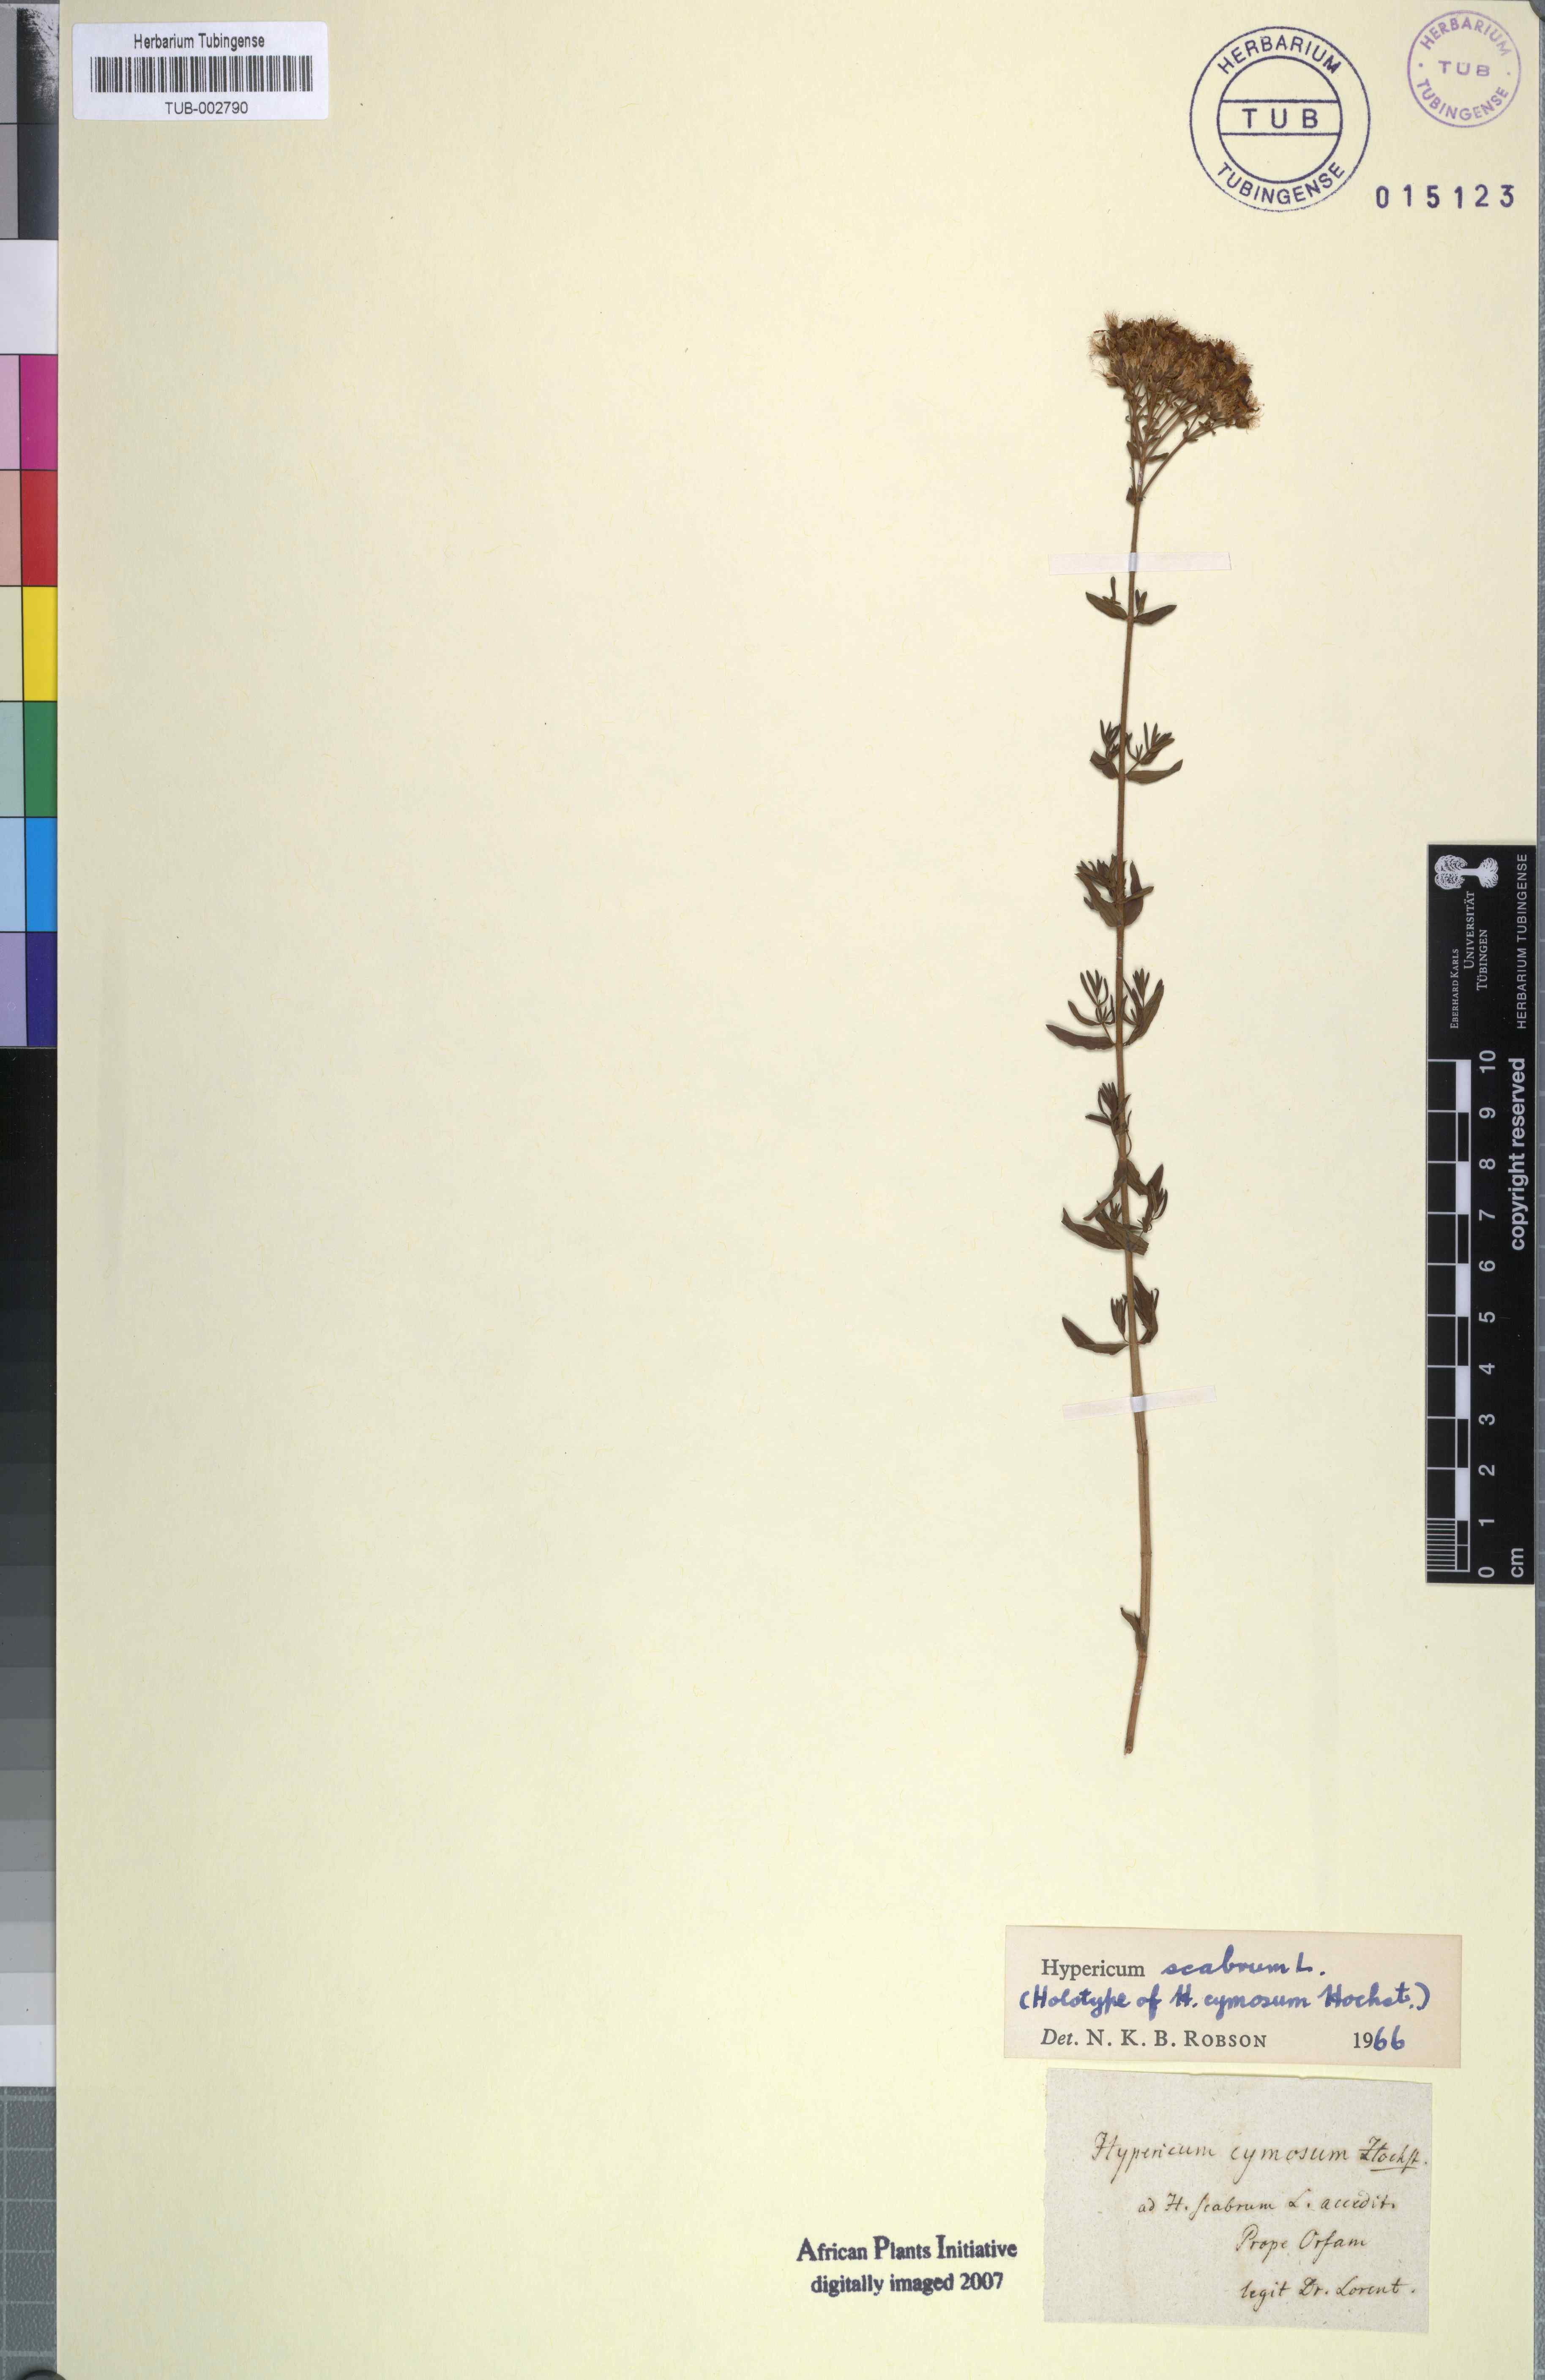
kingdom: Plantae
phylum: Tracheophyta
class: Magnoliopsida
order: Malpighiales
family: Hypericaceae
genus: Hypericum
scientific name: Hypericum scabrum
